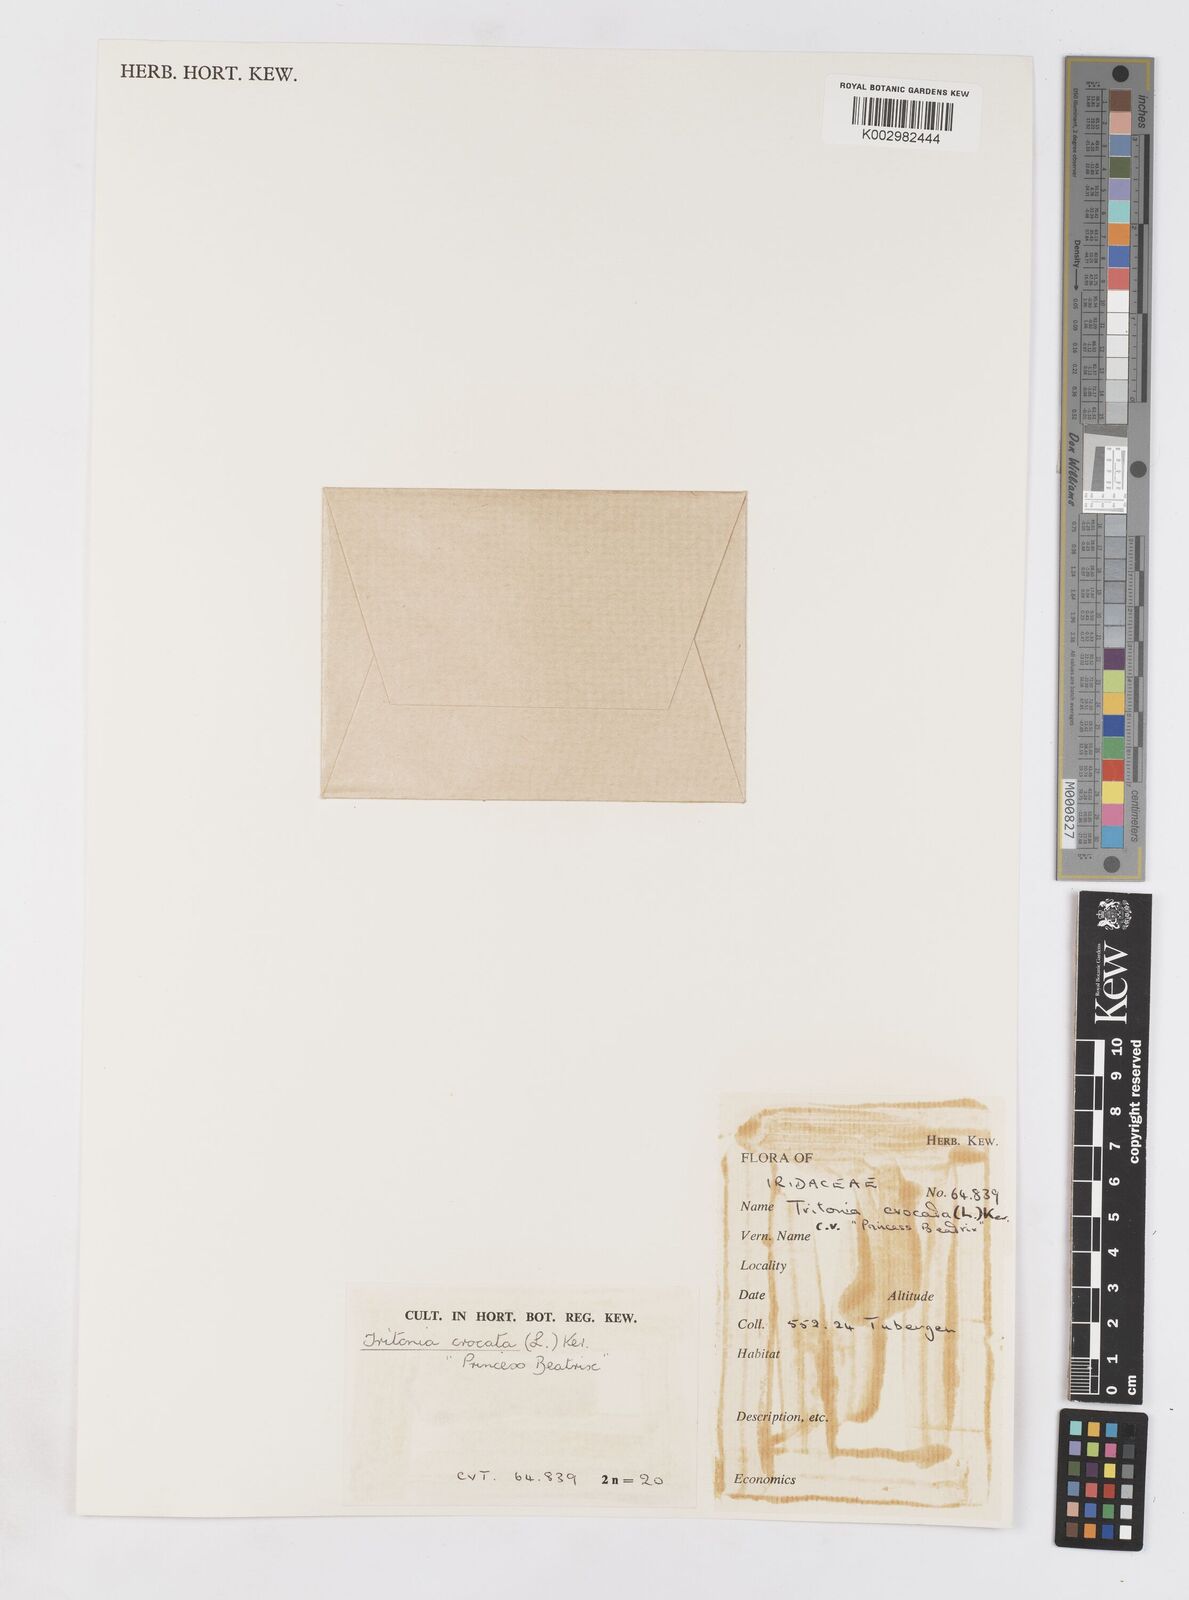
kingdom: Plantae
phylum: Tracheophyta
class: Liliopsida
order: Asparagales
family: Iridaceae
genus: Tritonia
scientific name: Tritonia crocata
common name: Flame-freesia
